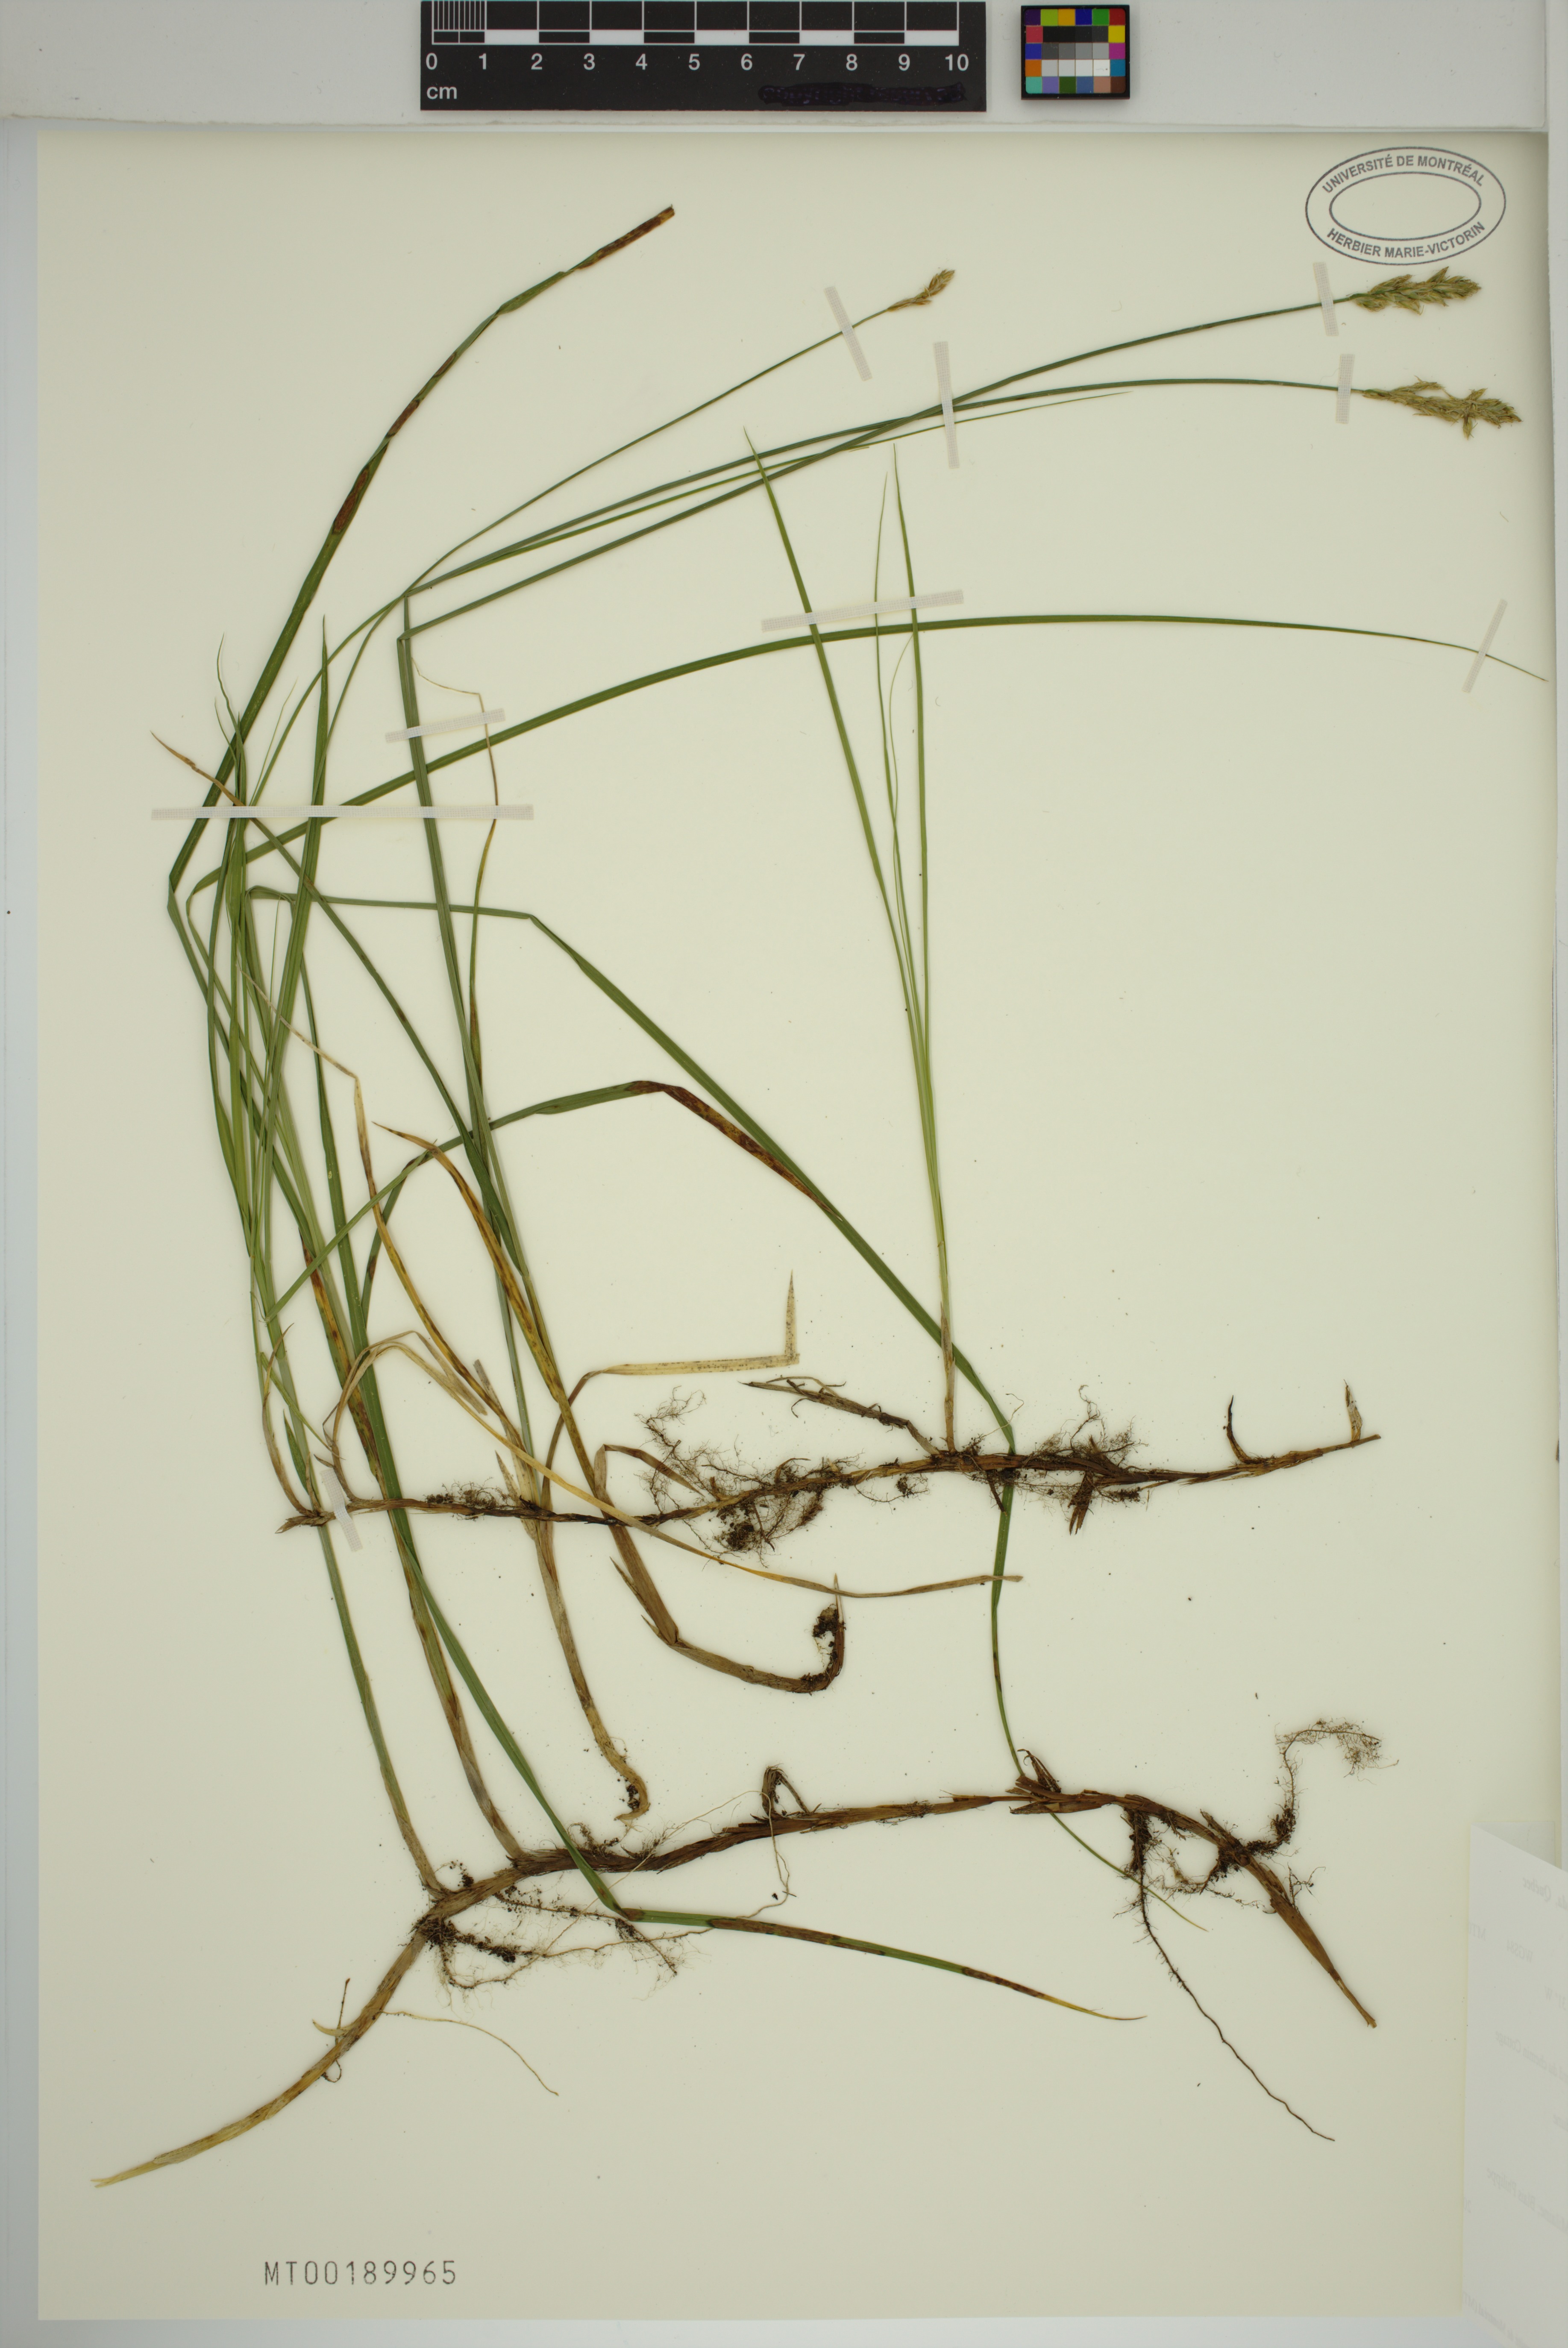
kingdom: Plantae
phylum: Tracheophyta
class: Liliopsida
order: Poales
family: Cyperaceae
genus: Carex
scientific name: Carex siccata
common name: Dry sedge
